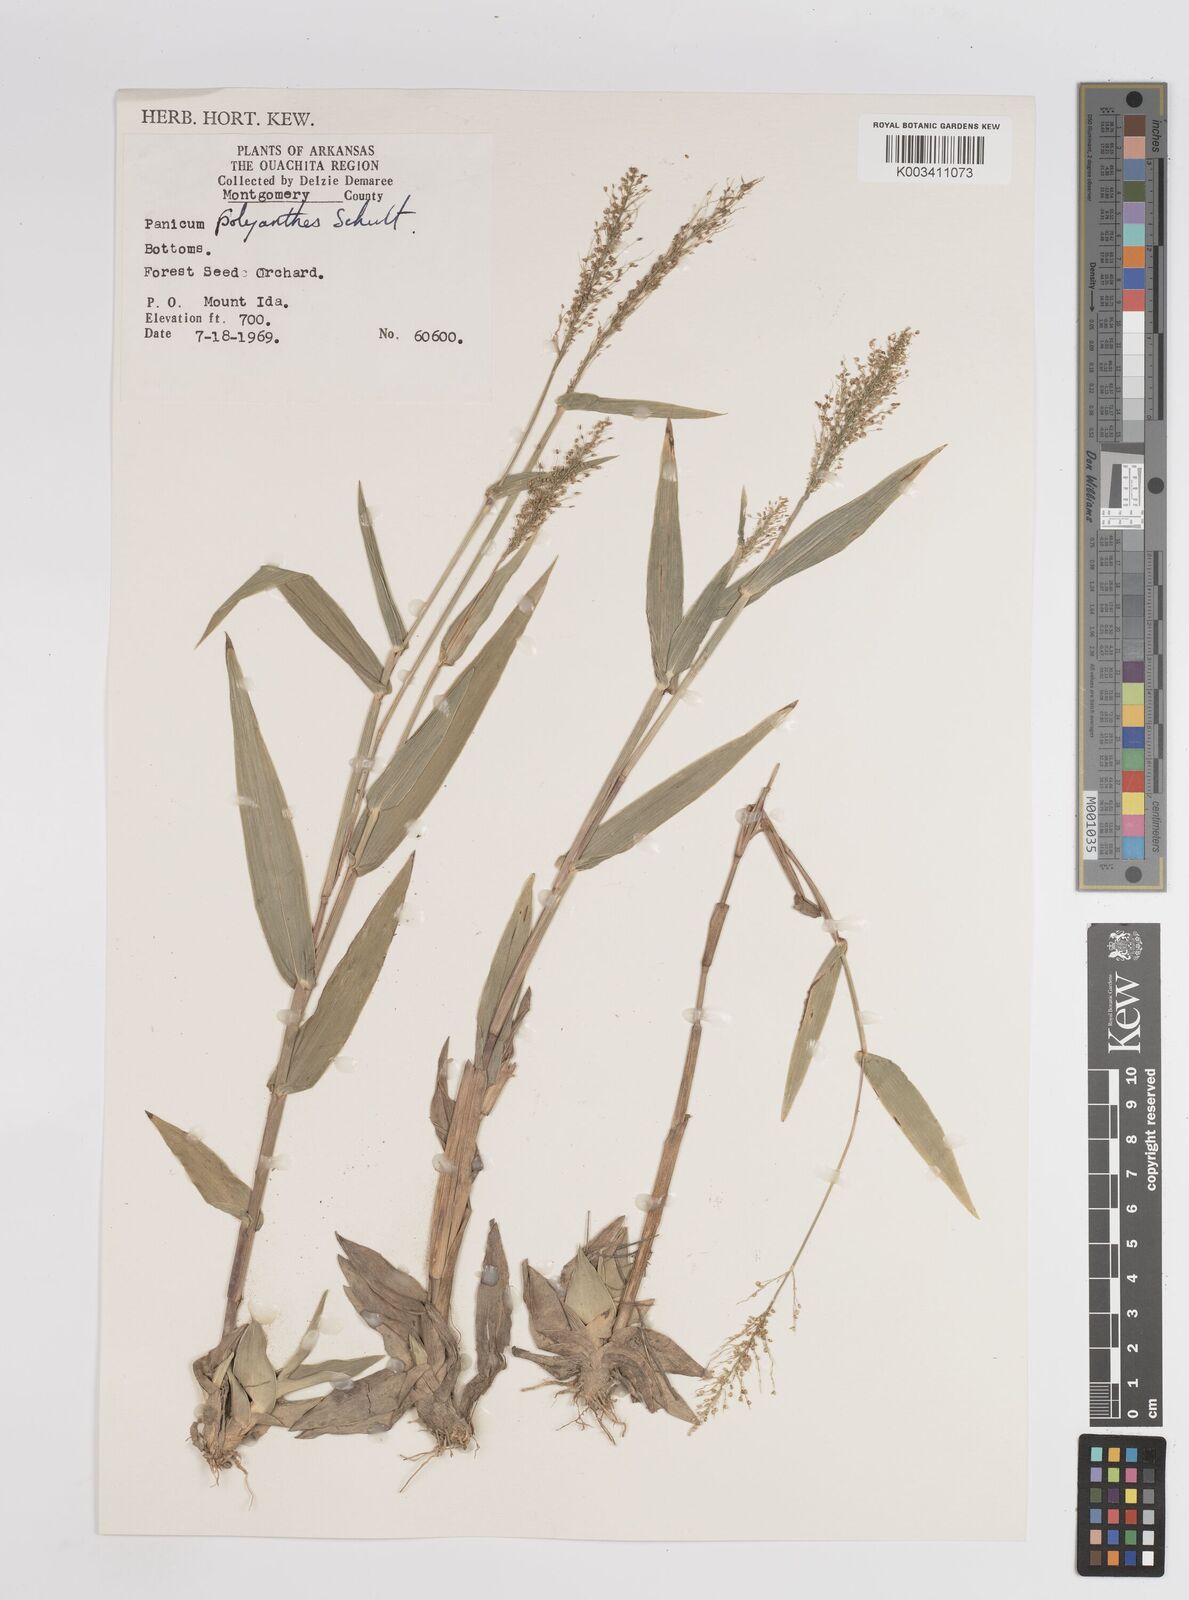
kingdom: Plantae
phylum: Tracheophyta
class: Liliopsida
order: Poales
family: Poaceae
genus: Dichanthelium
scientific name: Dichanthelium polyanthes
